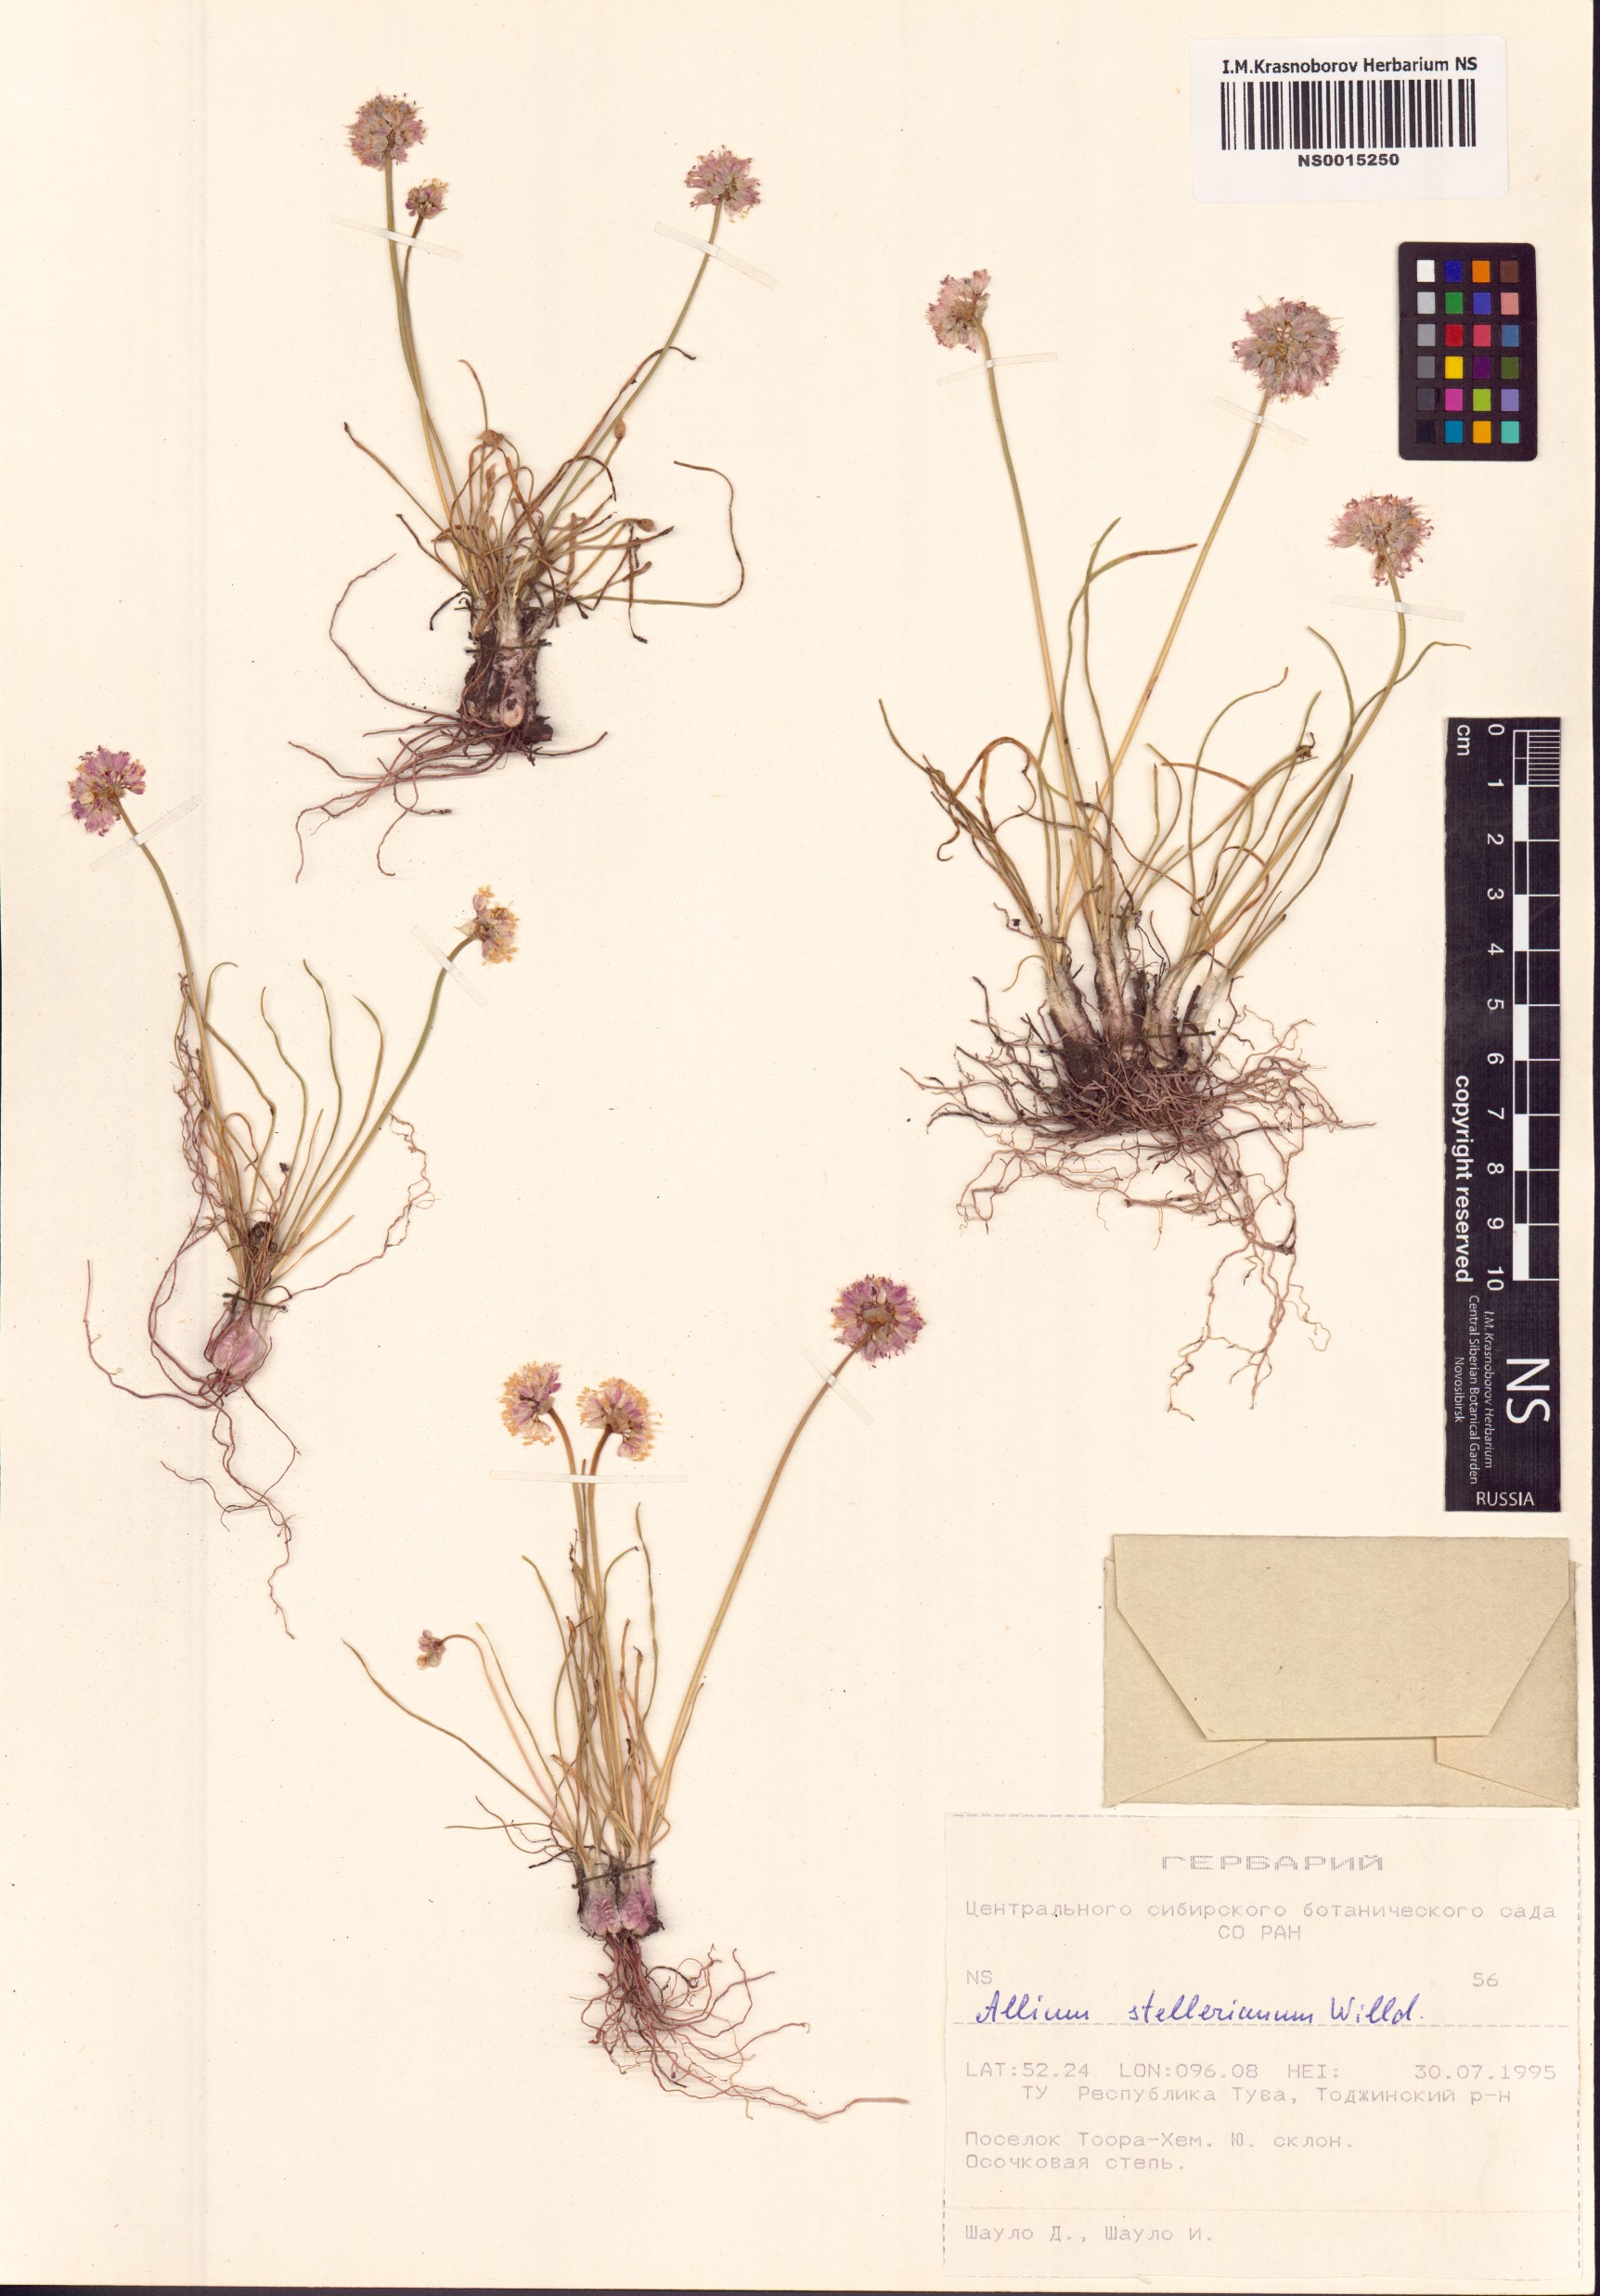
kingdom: Plantae
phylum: Tracheophyta
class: Liliopsida
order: Asparagales
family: Amaryllidaceae
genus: Allium
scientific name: Allium stellerianum
